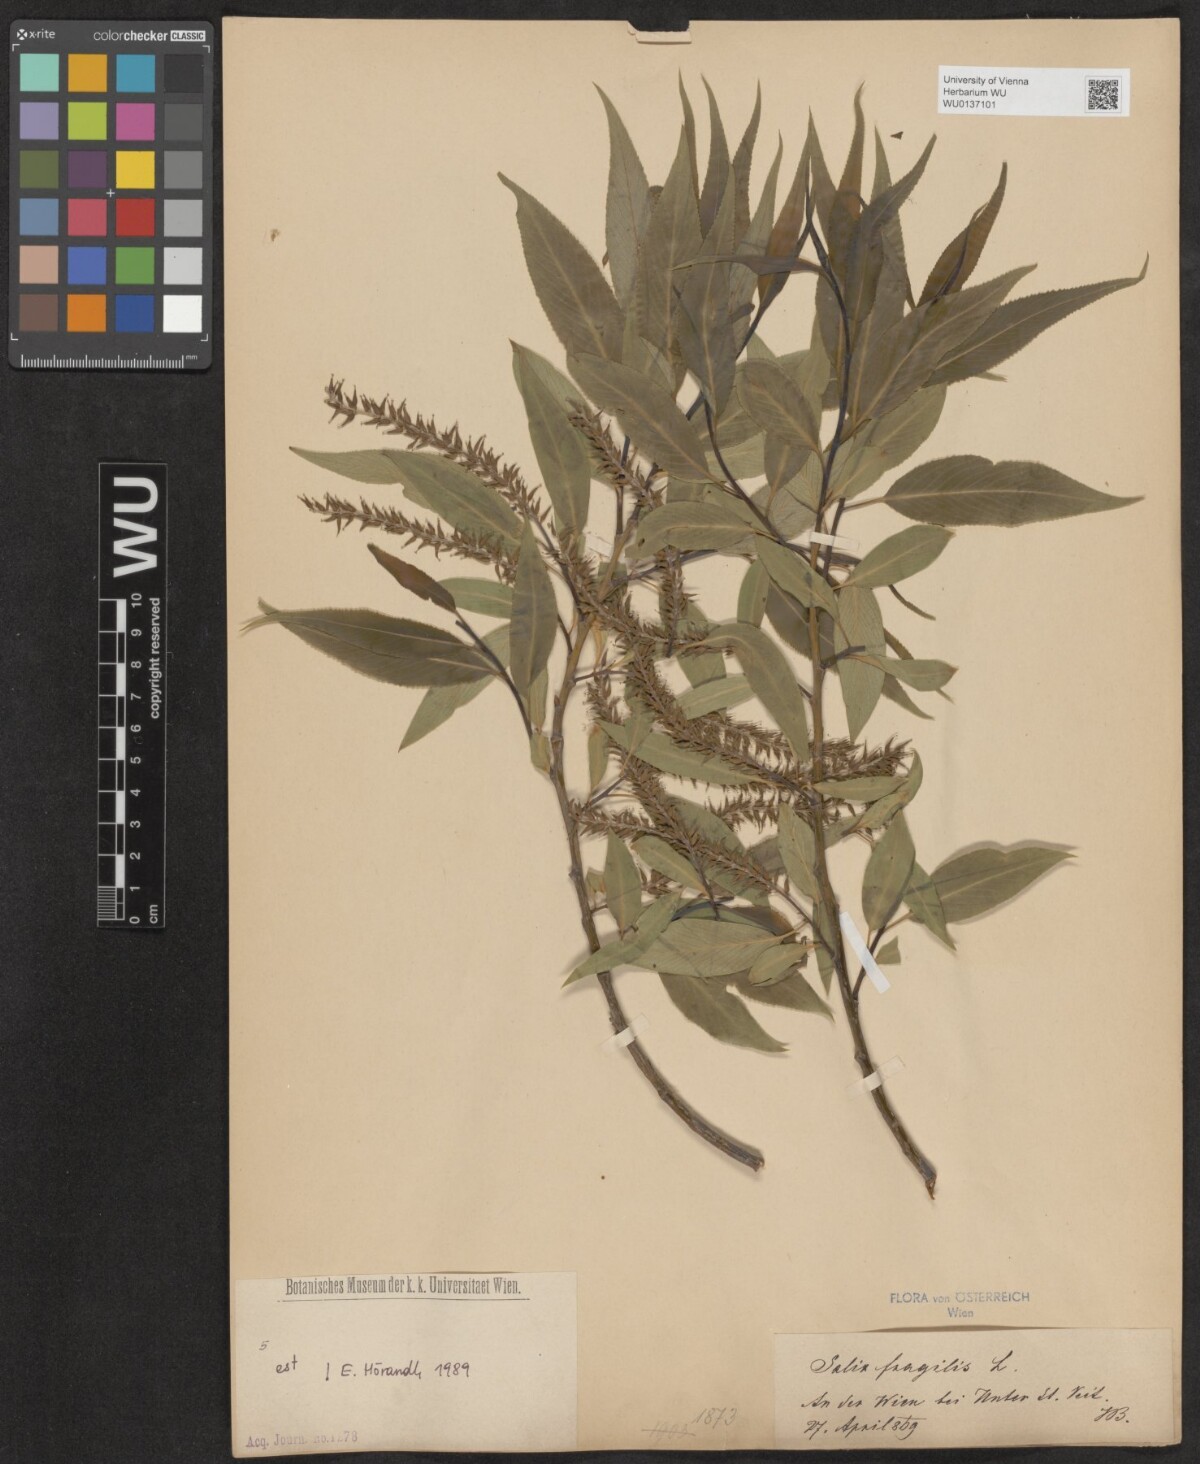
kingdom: Plantae
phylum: Tracheophyta
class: Magnoliopsida
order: Malpighiales
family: Salicaceae
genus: Salix
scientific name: Salix fragilis
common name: Crack willow
